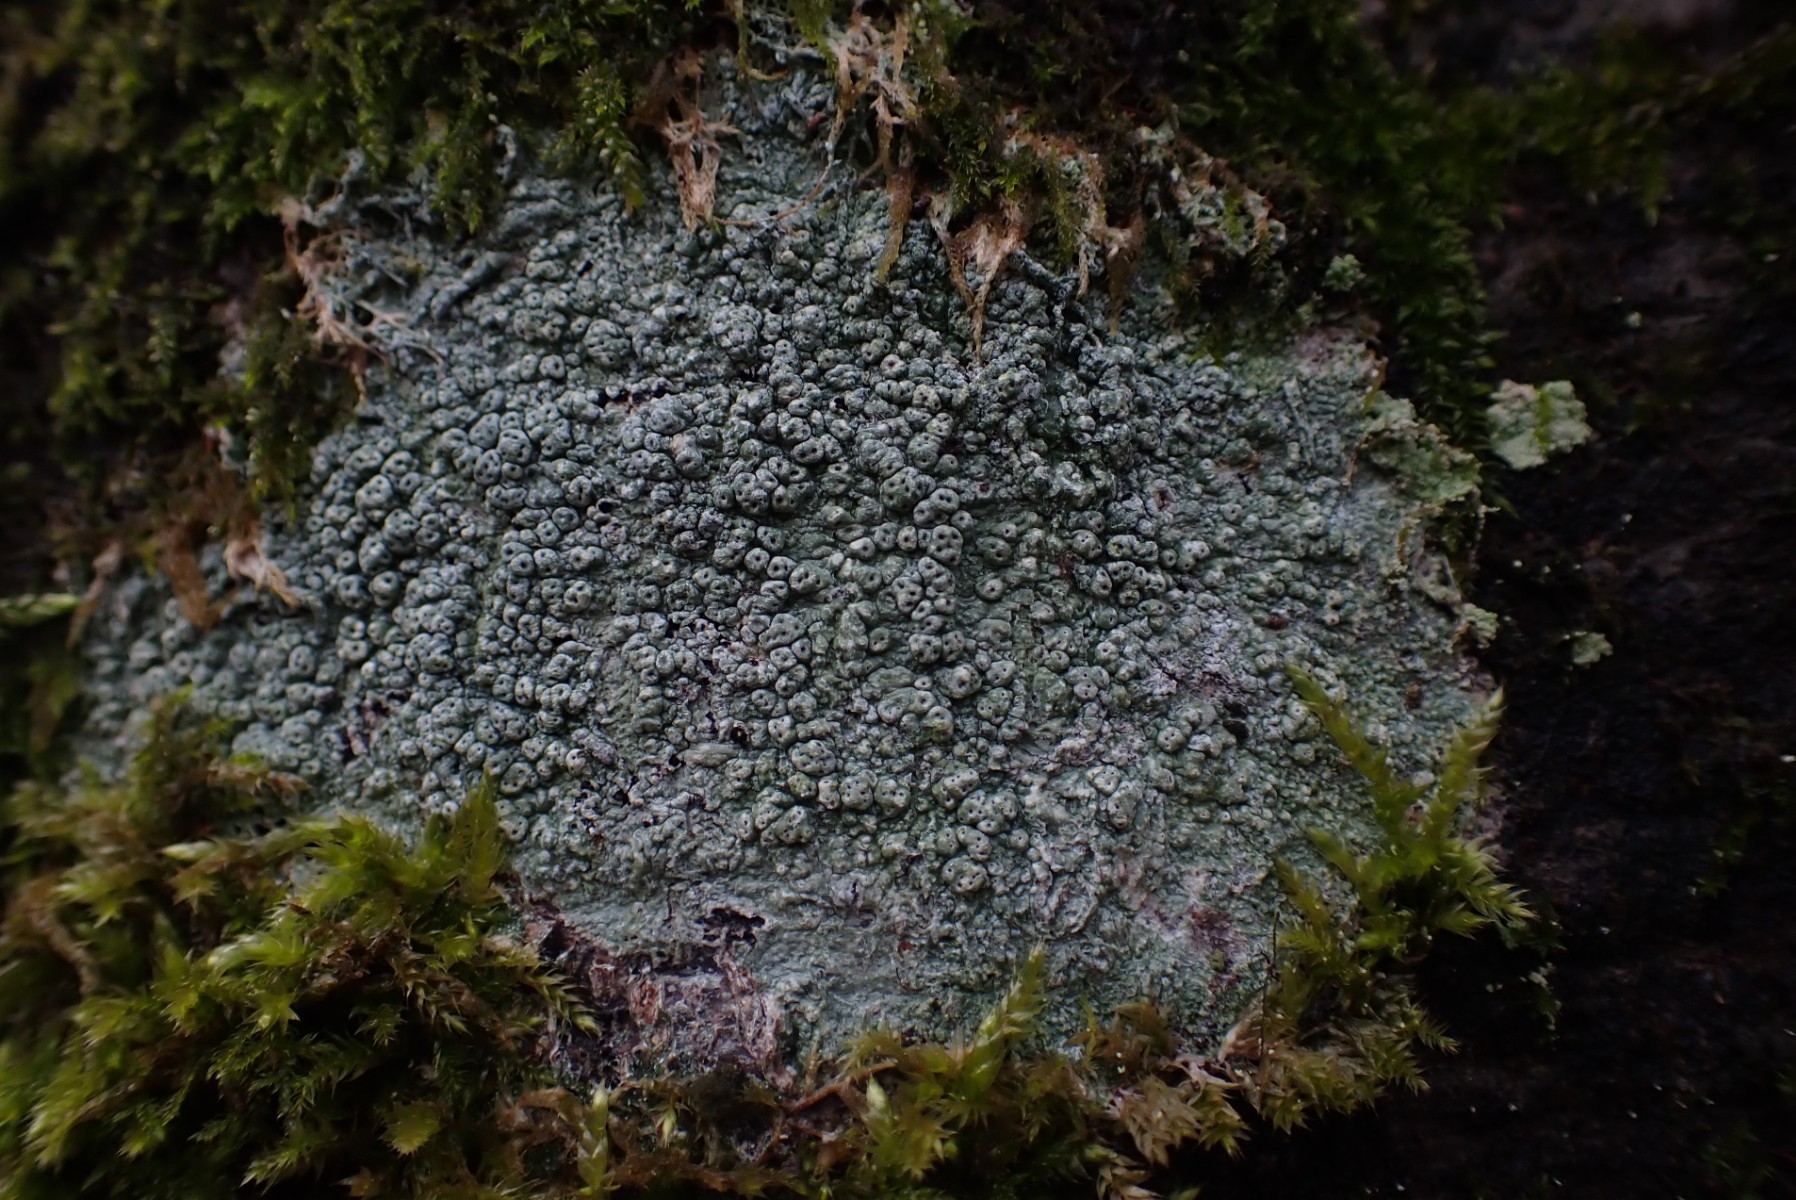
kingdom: Fungi
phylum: Ascomycota
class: Lecanoromycetes
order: Pertusariales
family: Pertusariaceae
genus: Pertusaria
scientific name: Pertusaria pertusa
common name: almindelig prikvortelav
